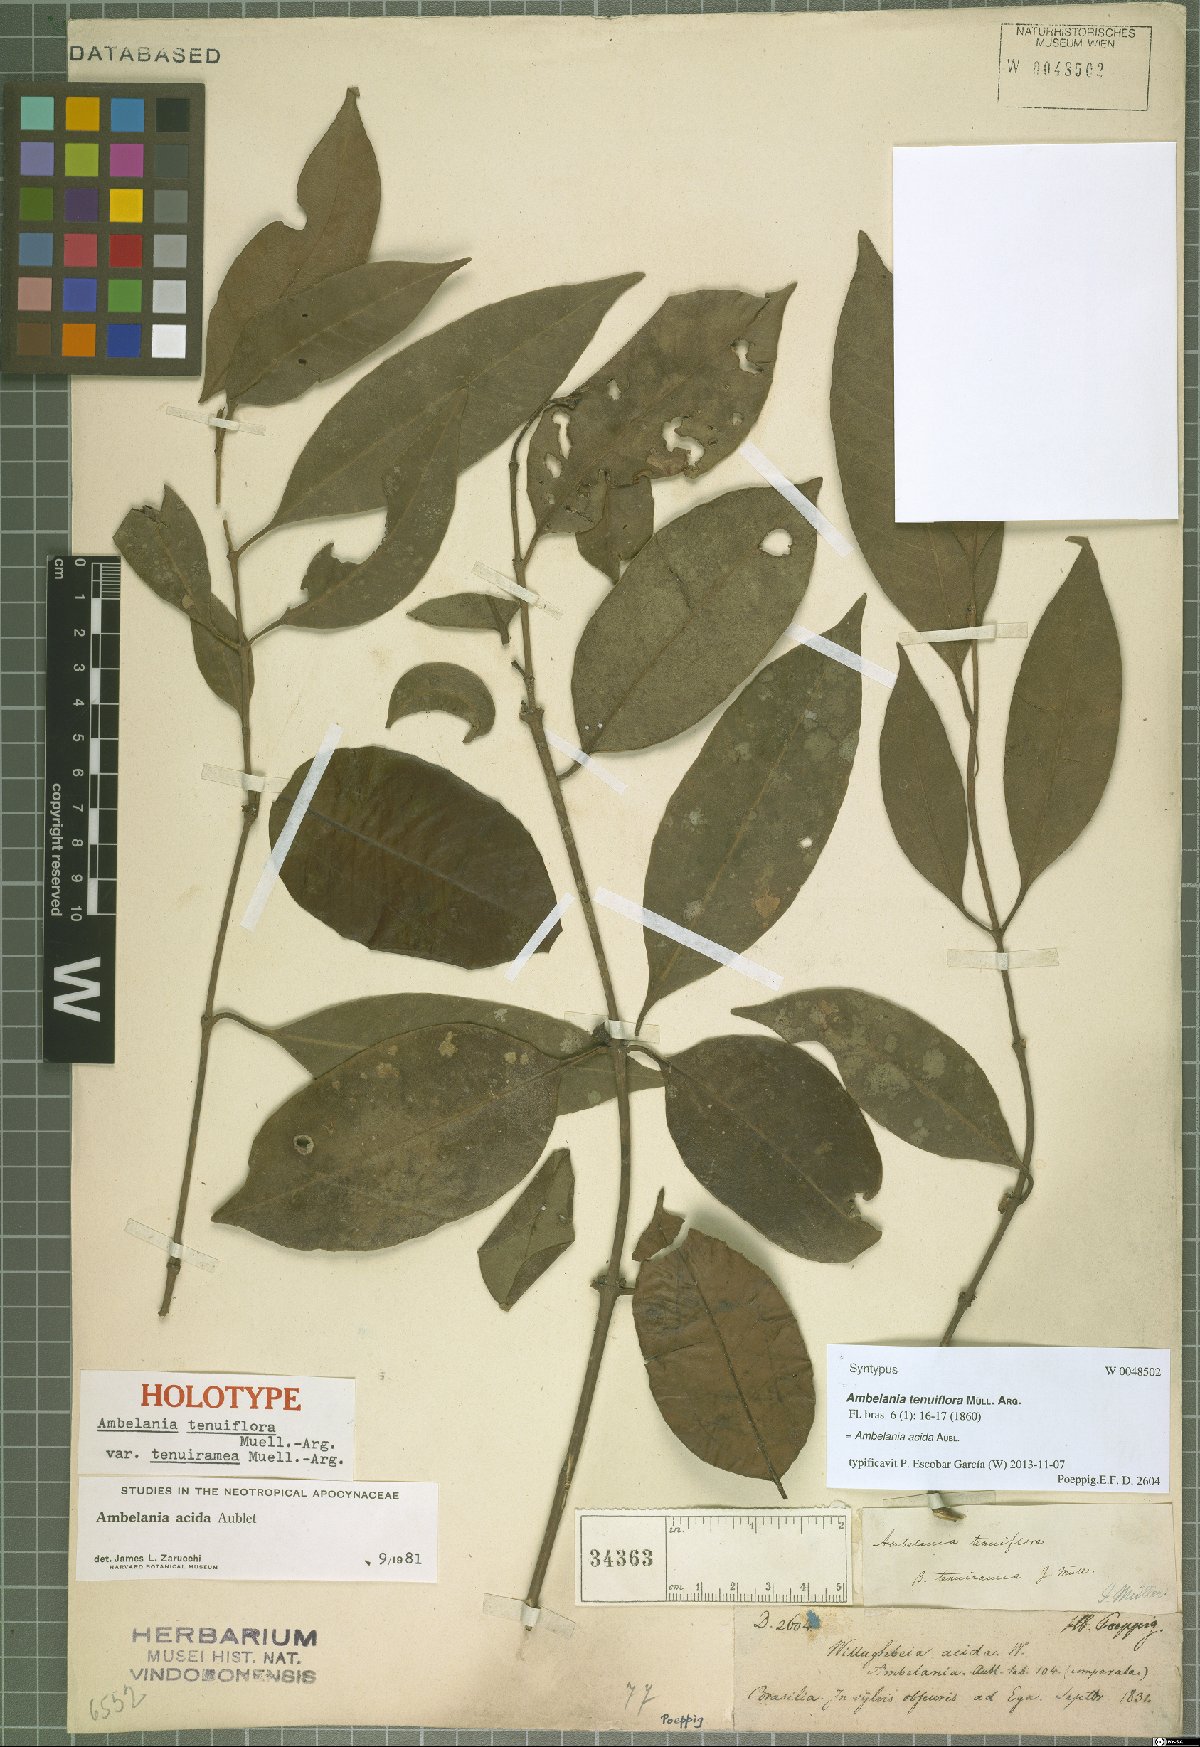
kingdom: Plantae
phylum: Tracheophyta
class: Magnoliopsida
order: Gentianales
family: Apocynaceae
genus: Ambelania
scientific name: Ambelania acida
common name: Bagasse
